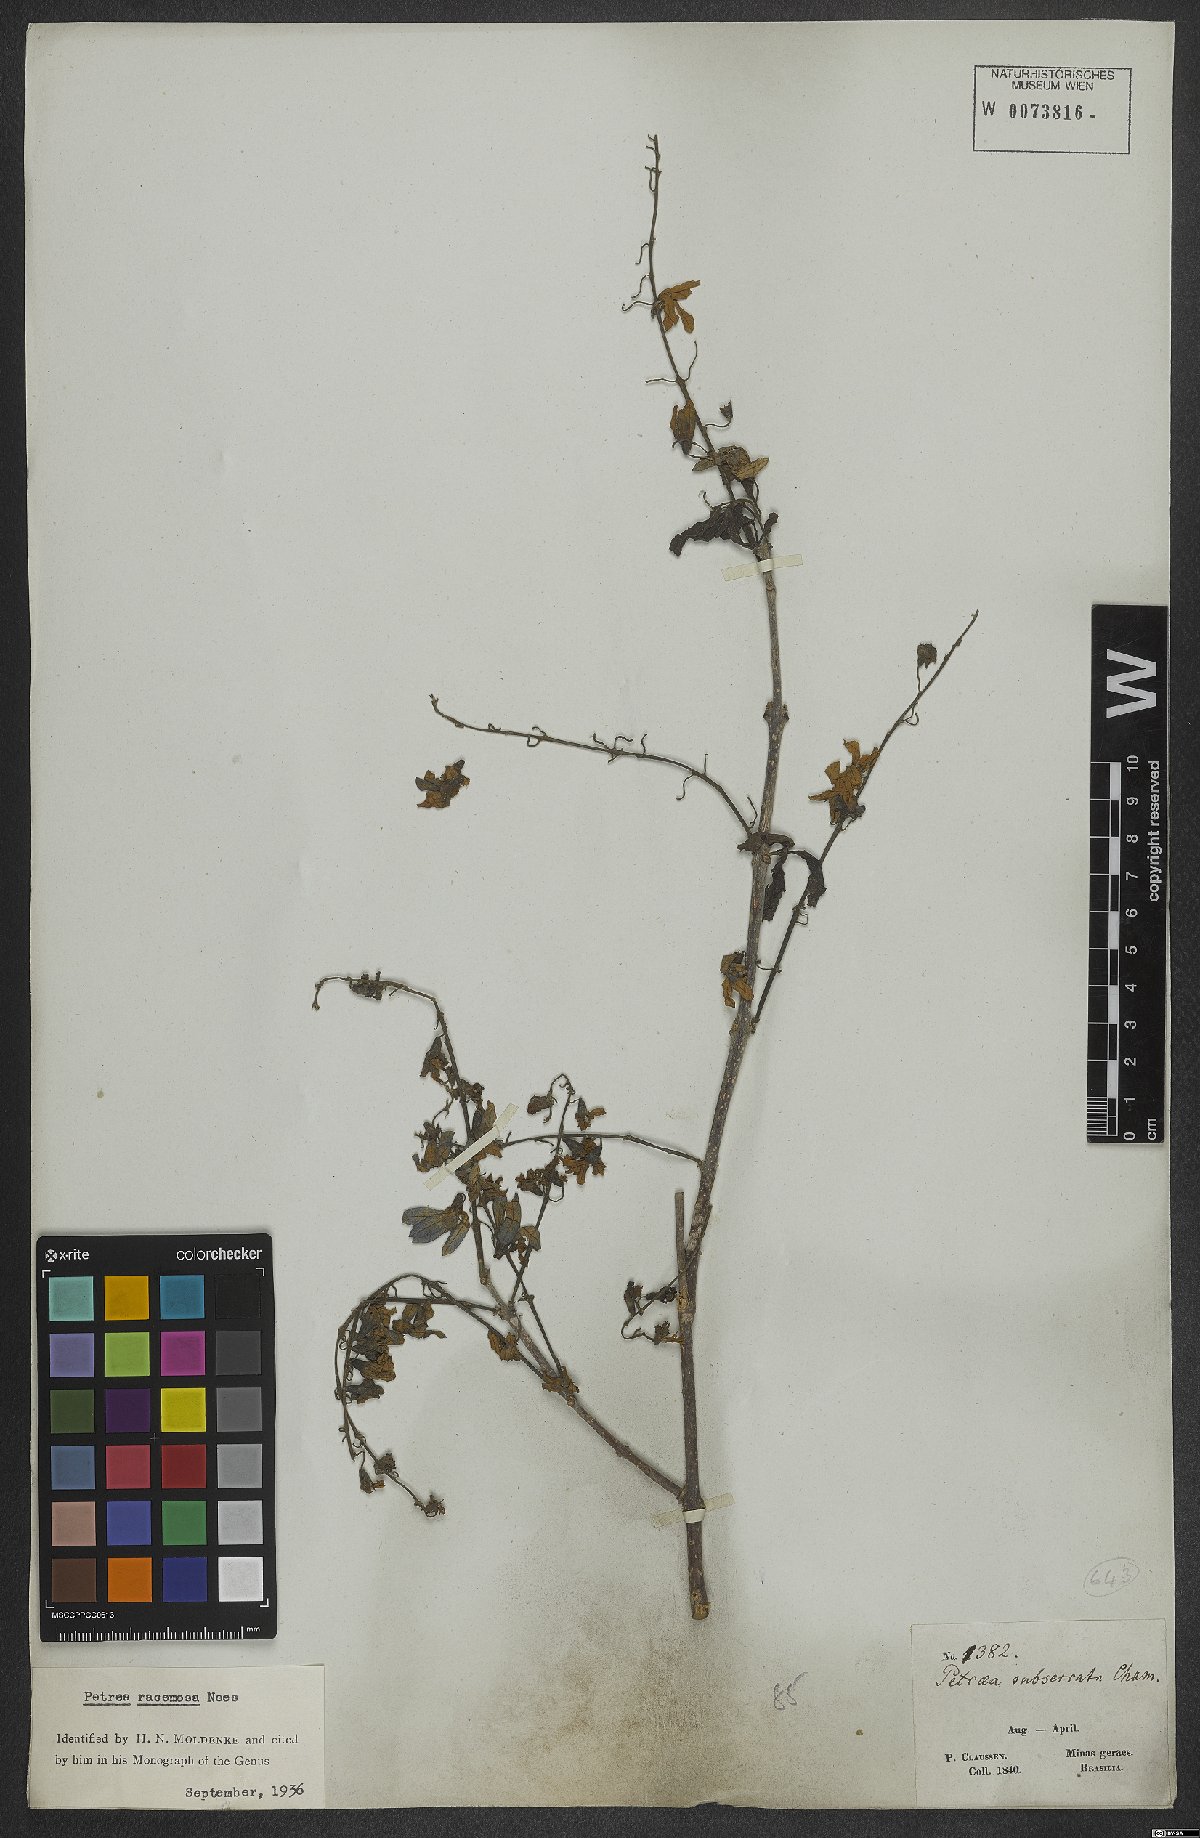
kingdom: Plantae
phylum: Tracheophyta
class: Magnoliopsida
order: Lamiales
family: Verbenaceae
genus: Petrea
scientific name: Petrea volubilis
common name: Queen's-wreath
